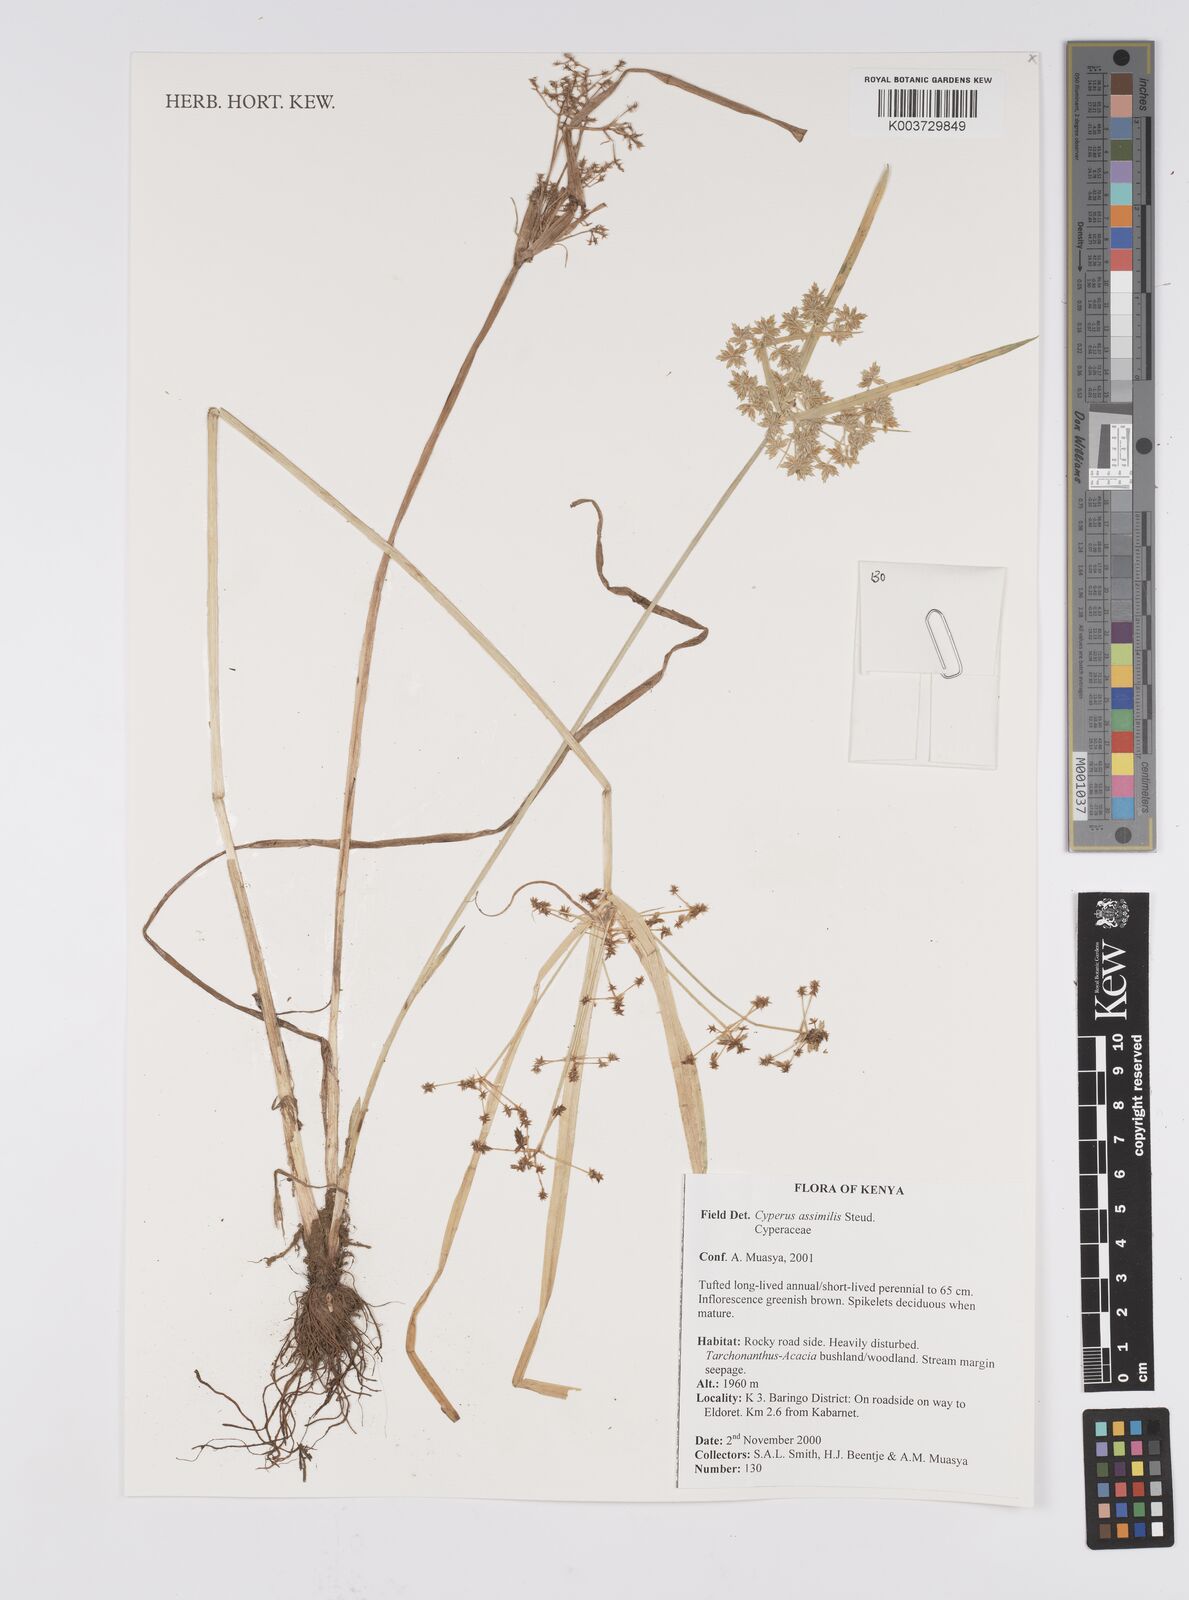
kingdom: Plantae
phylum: Tracheophyta
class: Liliopsida
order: Poales
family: Cyperaceae
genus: Cyperus
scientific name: Cyperus assimilis
